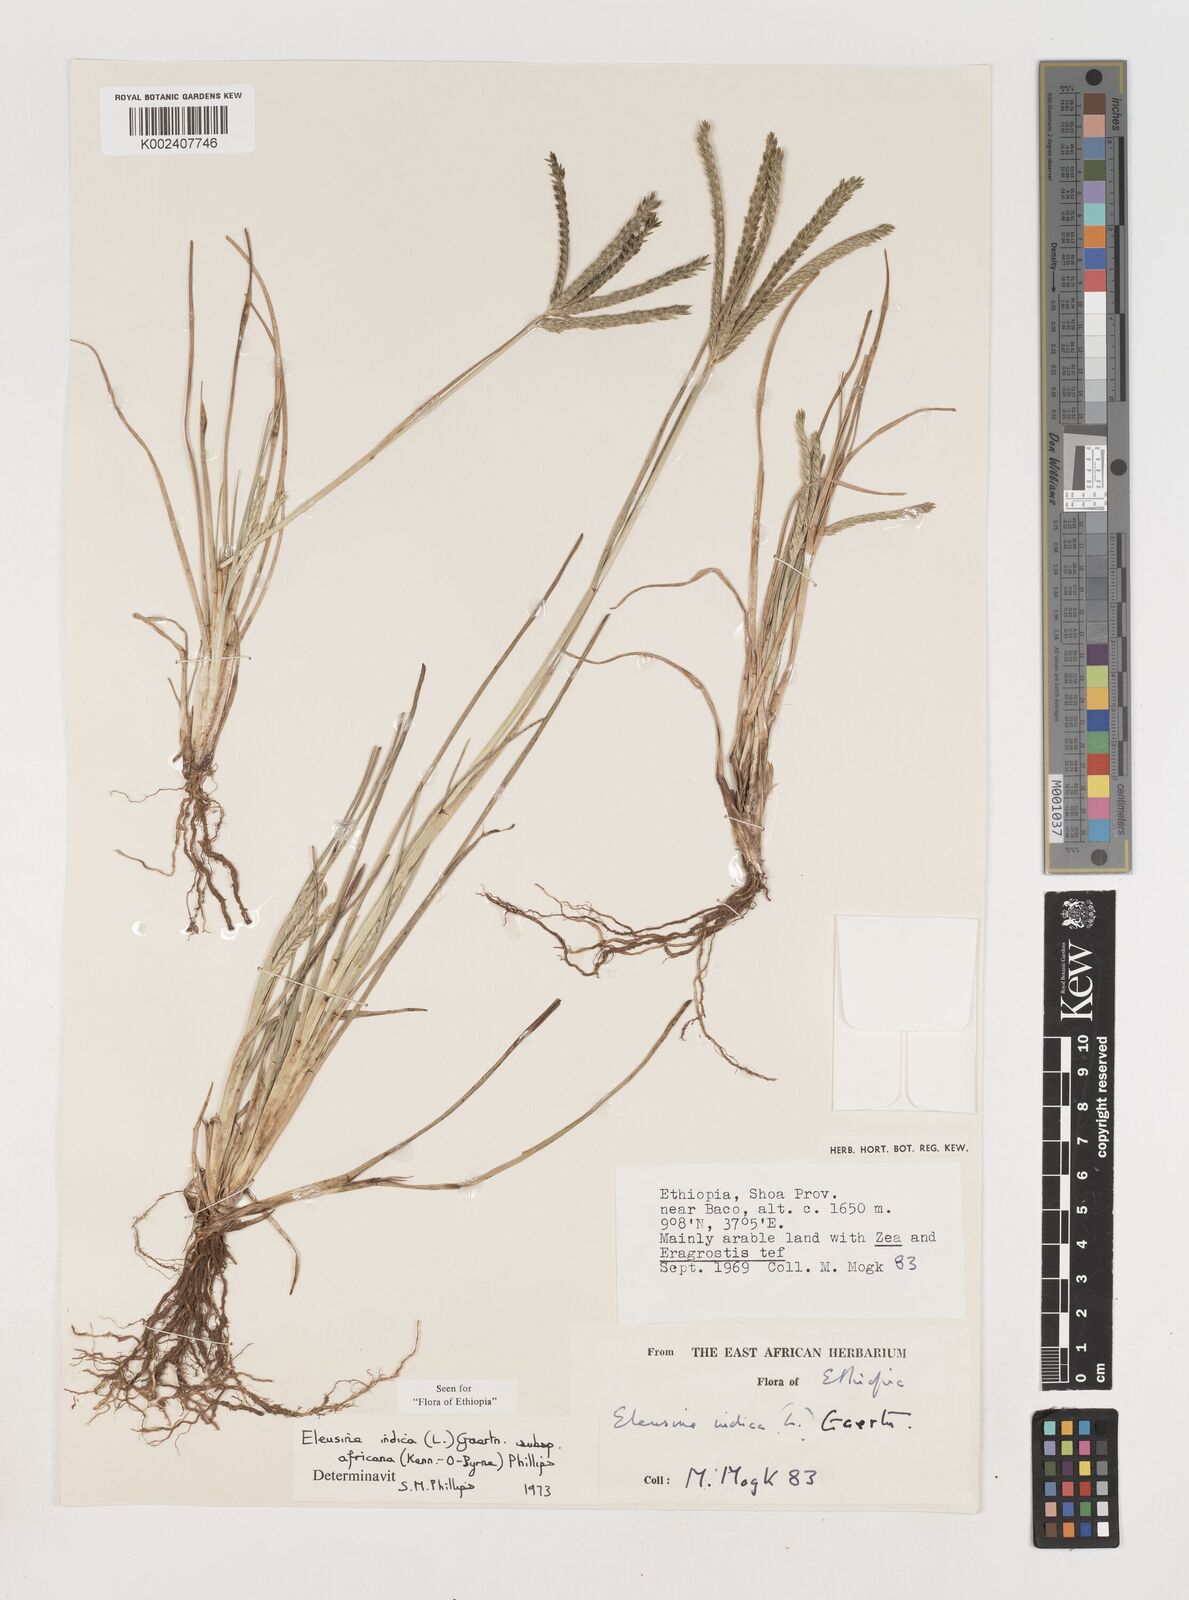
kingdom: Plantae
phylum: Tracheophyta
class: Liliopsida
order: Poales
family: Poaceae
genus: Eleusine
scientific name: Eleusine africana
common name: Wild african finger millet
